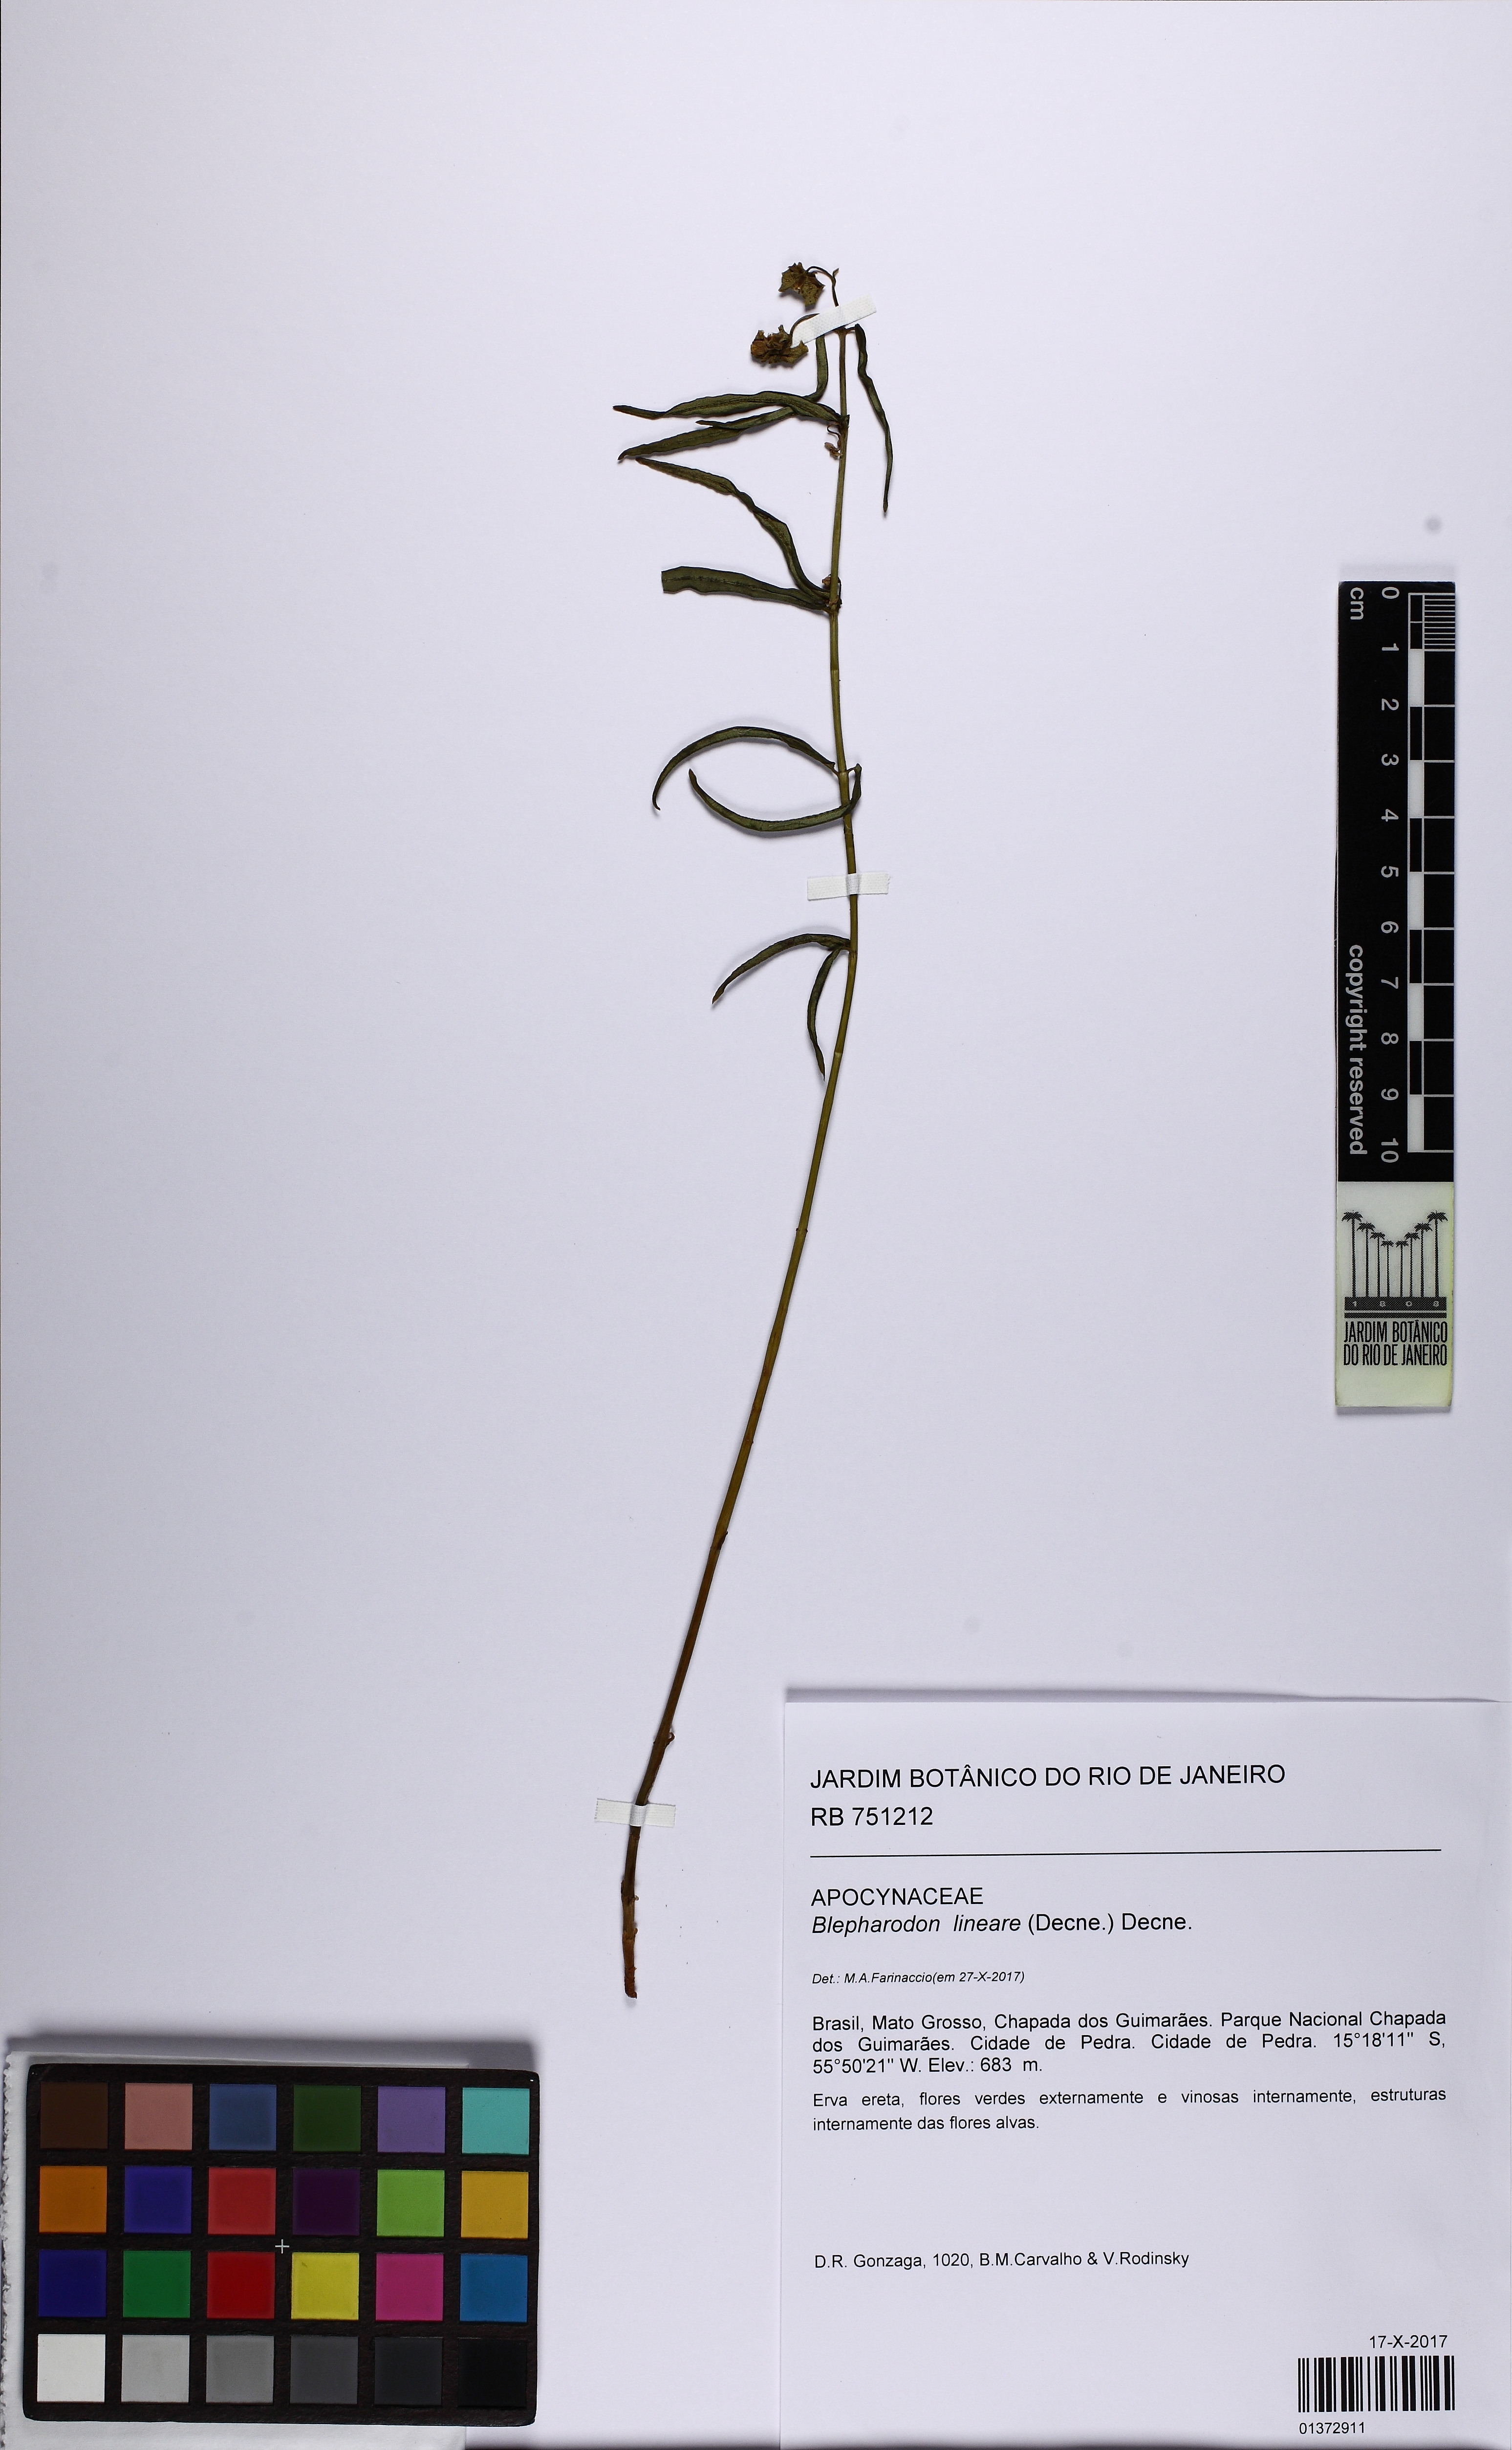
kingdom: Plantae
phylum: Tracheophyta
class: Magnoliopsida
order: Gentianales
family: Apocynaceae
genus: Blepharodon
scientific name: Blepharodon lineare
